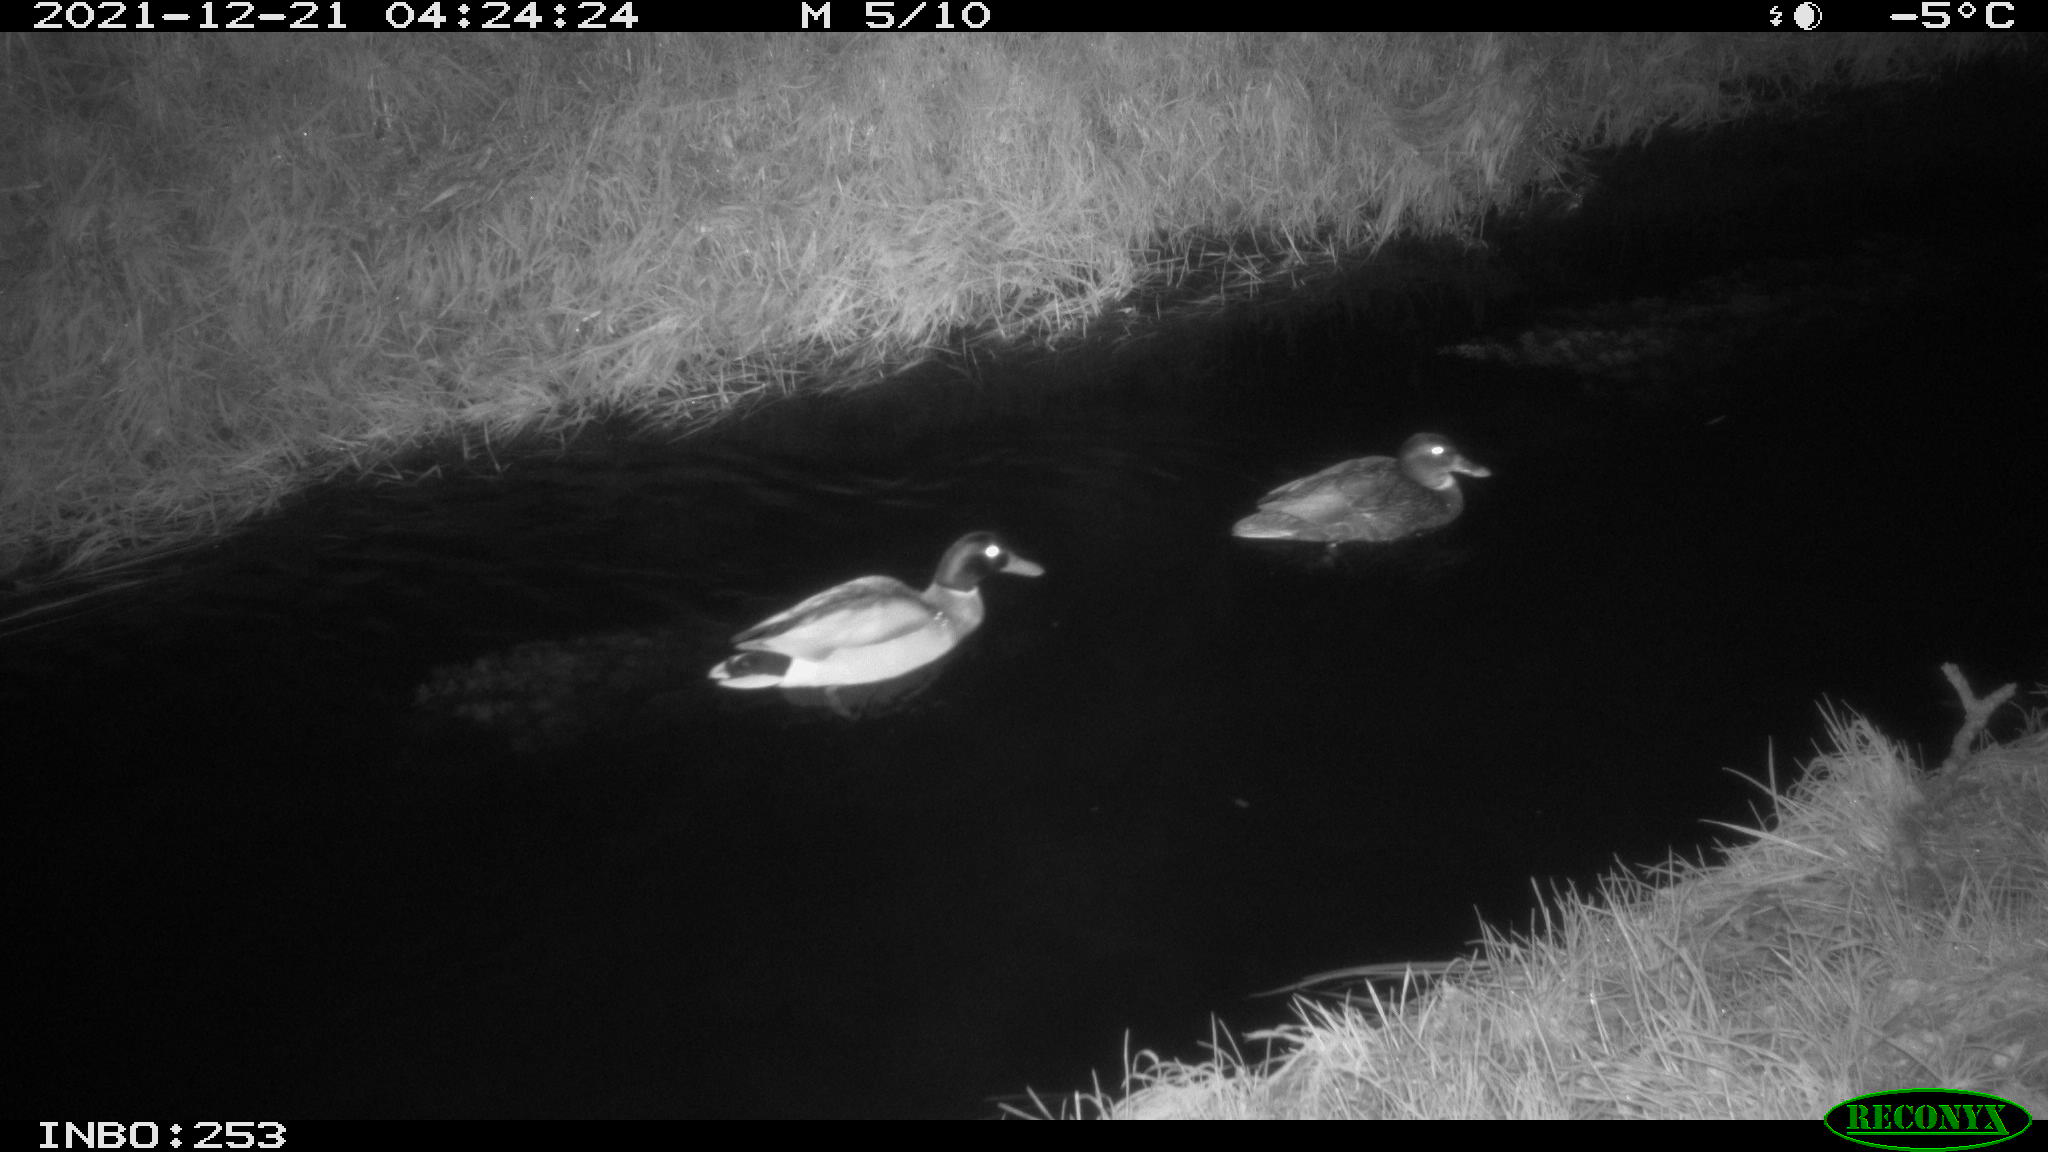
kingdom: Animalia
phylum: Chordata
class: Aves
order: Anseriformes
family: Anatidae
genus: Anas
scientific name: Anas
